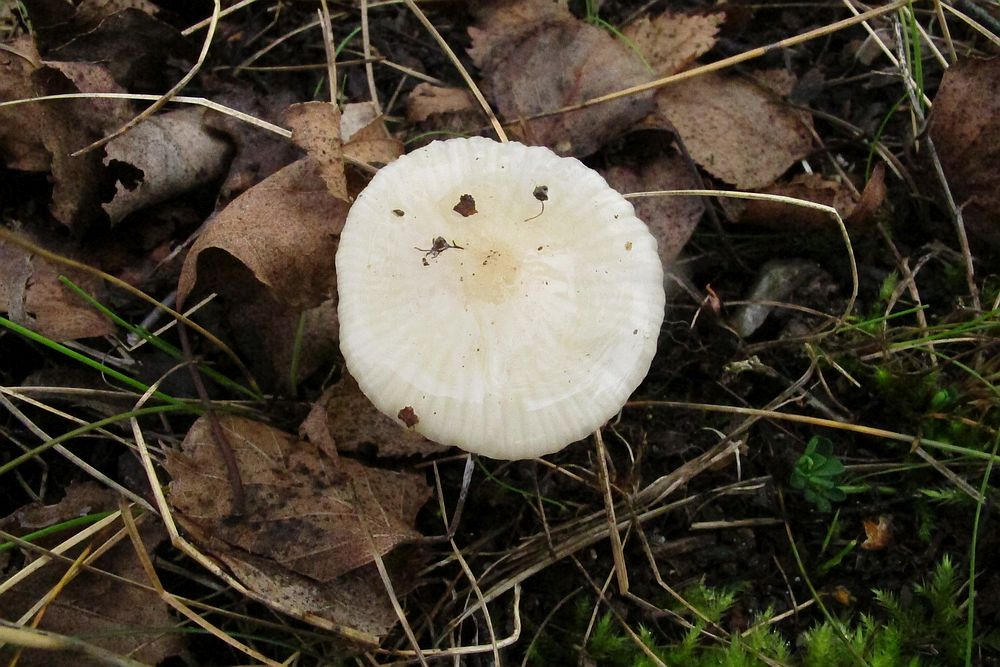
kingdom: Fungi
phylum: Basidiomycota
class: Agaricomycetes
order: Agaricales
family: Hygrophoraceae
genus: Cuphophyllus
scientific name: Cuphophyllus virgineus
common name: snehvid vokshat
